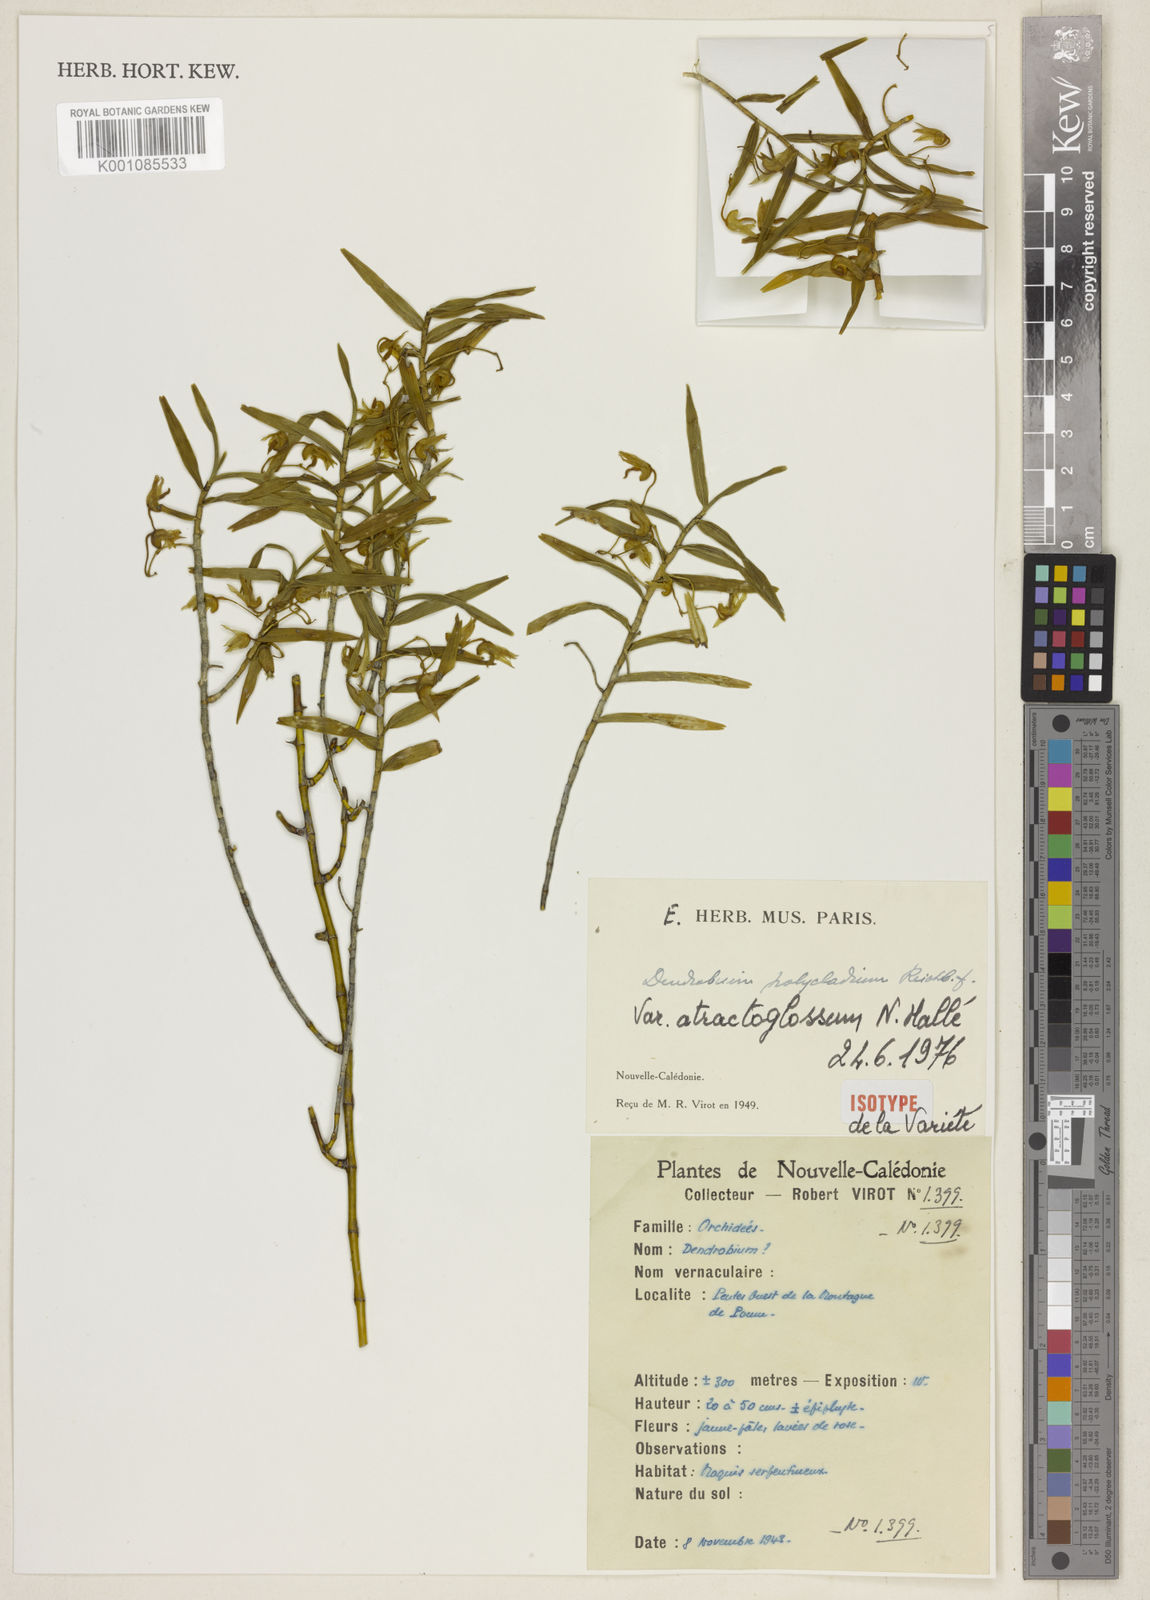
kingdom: Plantae
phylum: Tracheophyta
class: Liliopsida
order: Asparagales
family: Orchidaceae
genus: Dendrobium
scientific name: Dendrobium polycladium
